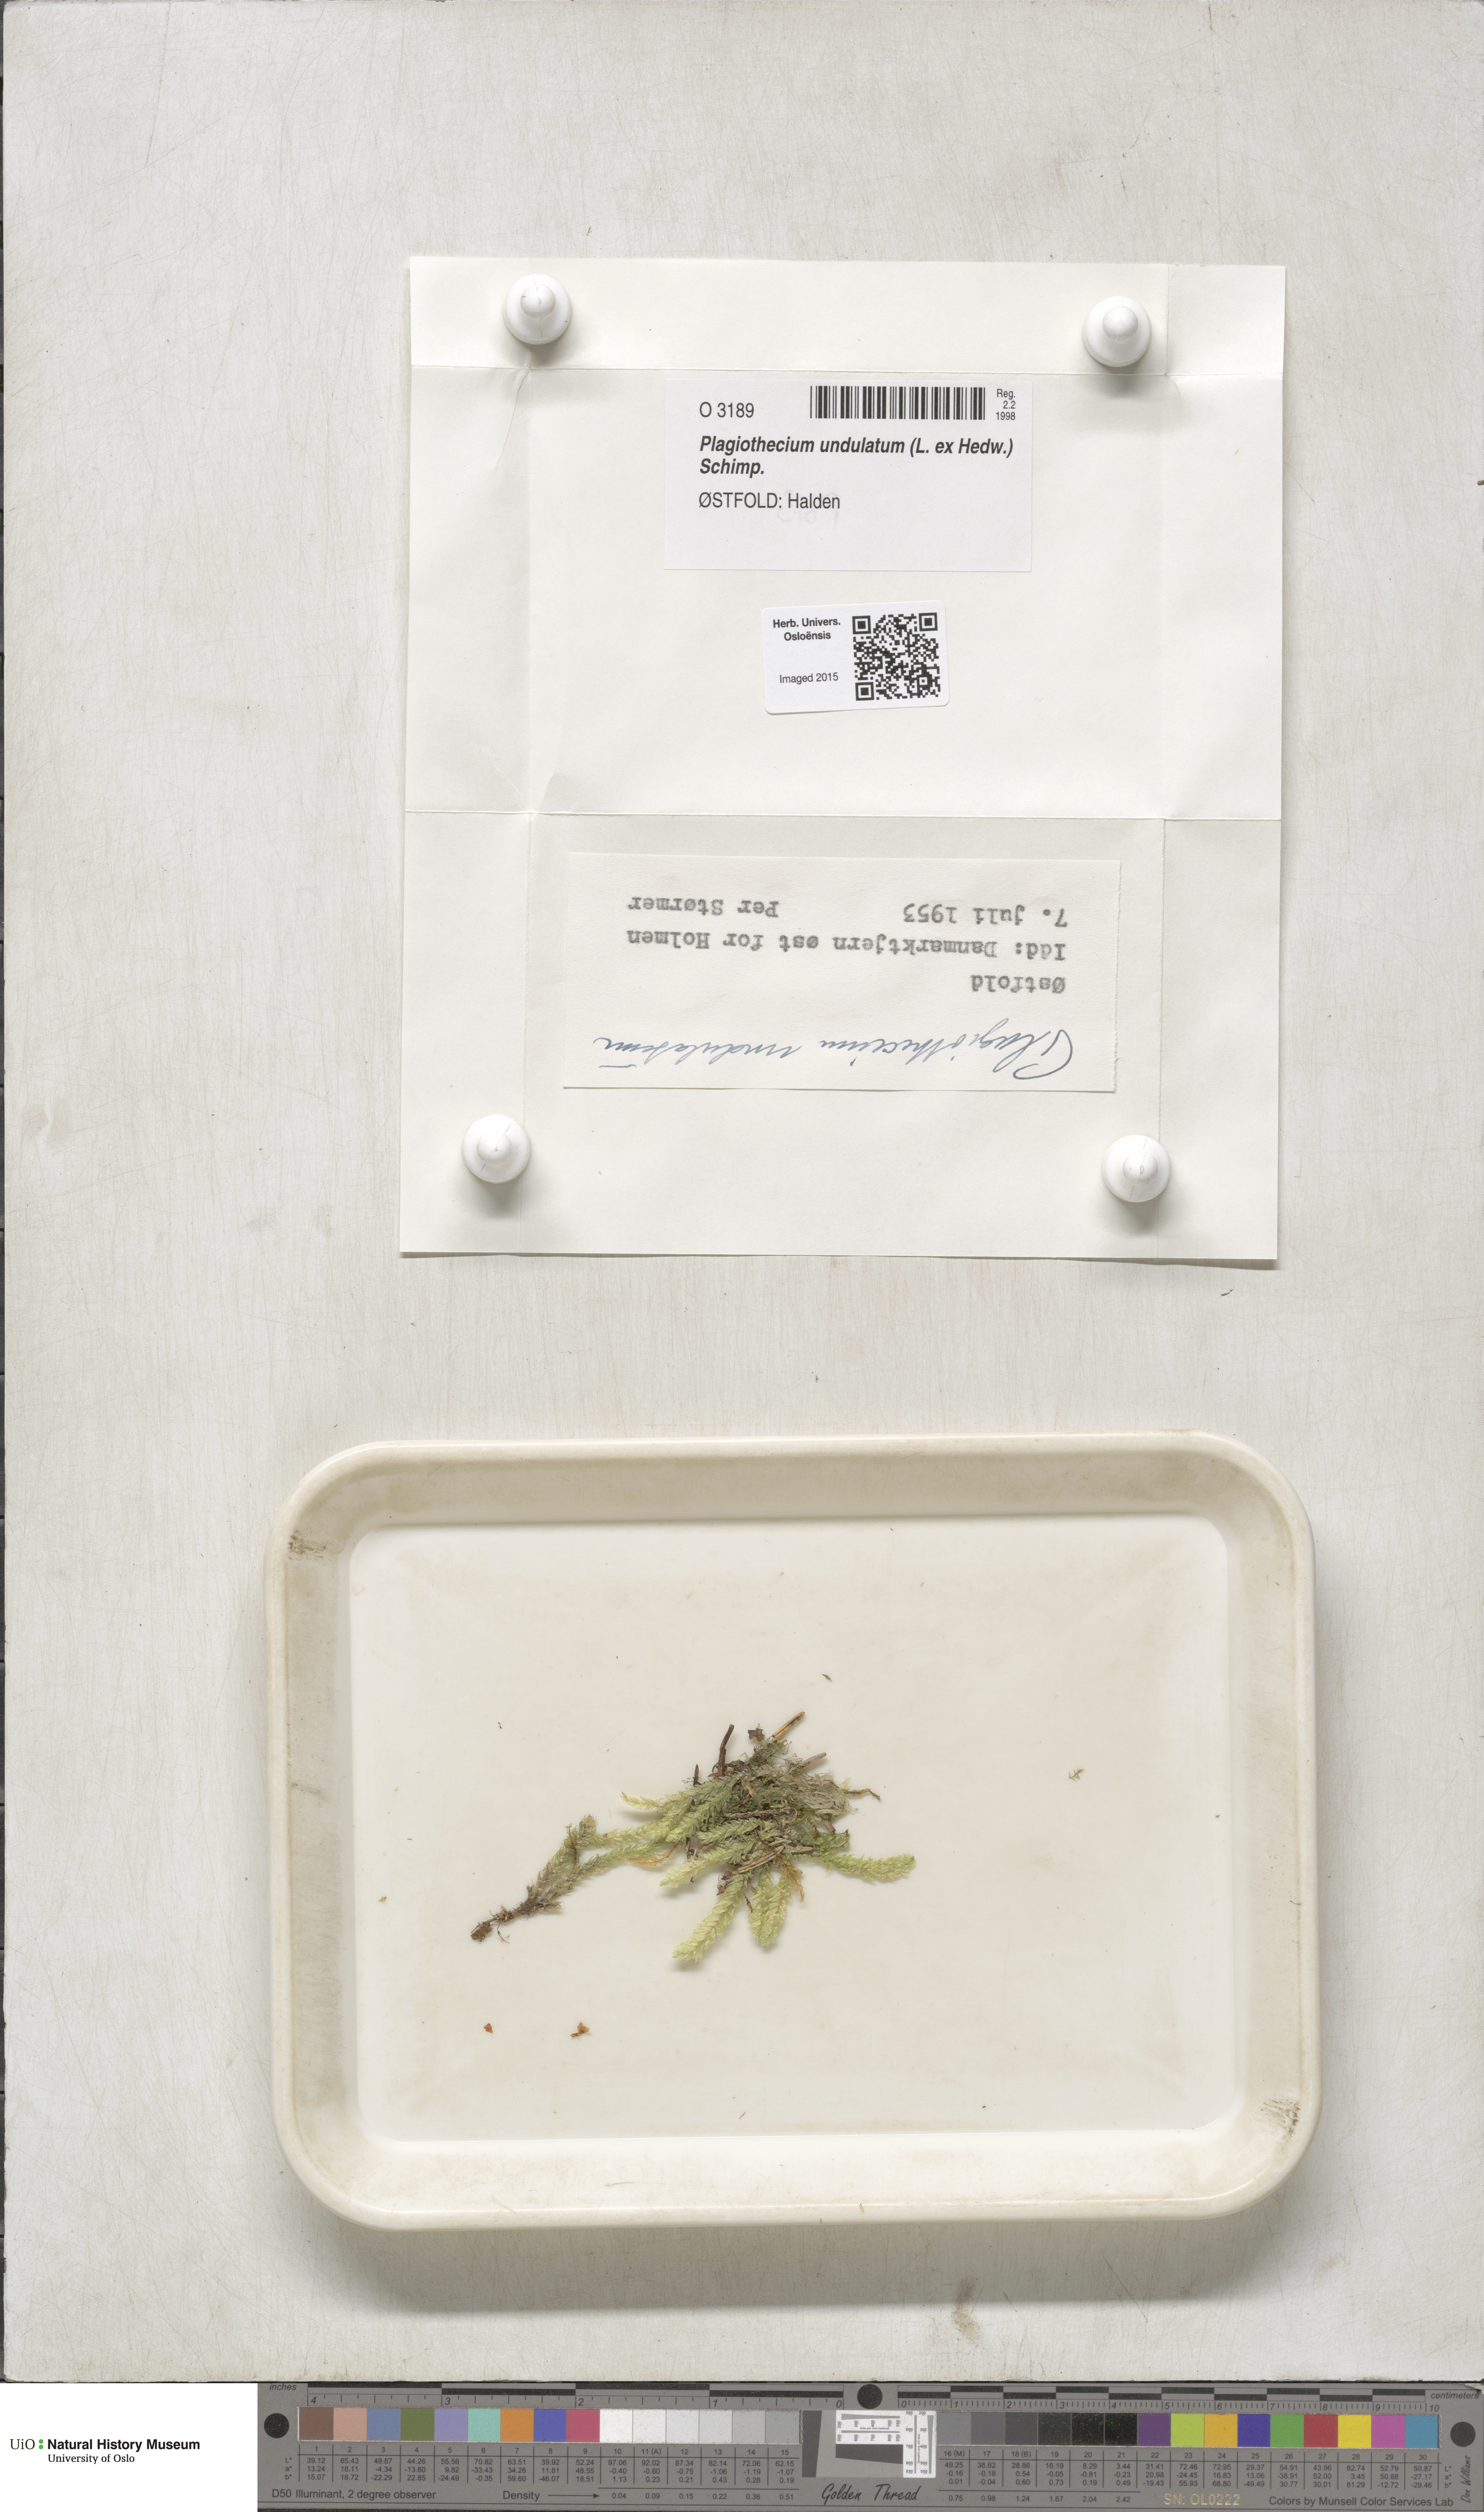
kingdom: Plantae
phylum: Bryophyta
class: Bryopsida
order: Hypnales
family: Plagiotheciaceae
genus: Plagiothecium
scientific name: Plagiothecium undulatum
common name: Waved silk-moss
